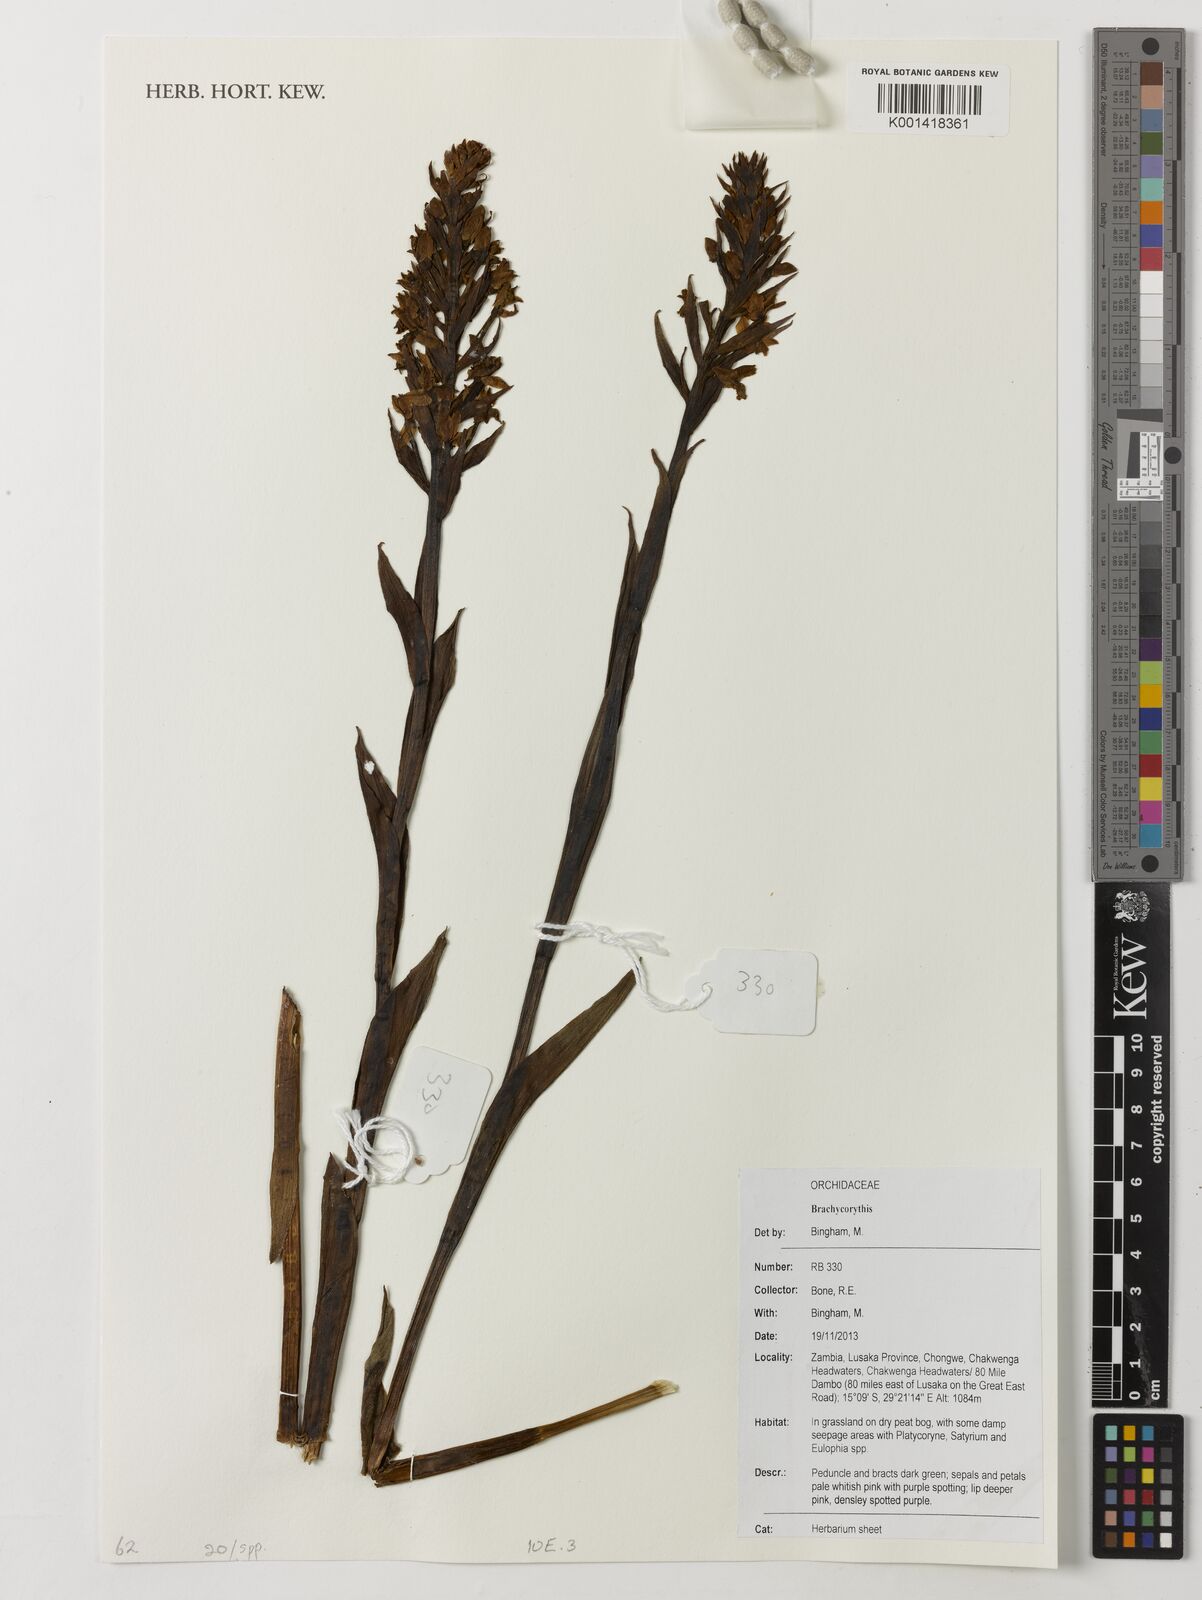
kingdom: Plantae
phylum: Tracheophyta
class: Liliopsida
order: Asparagales
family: Orchidaceae
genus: Brachycorythis
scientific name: Brachycorythis
